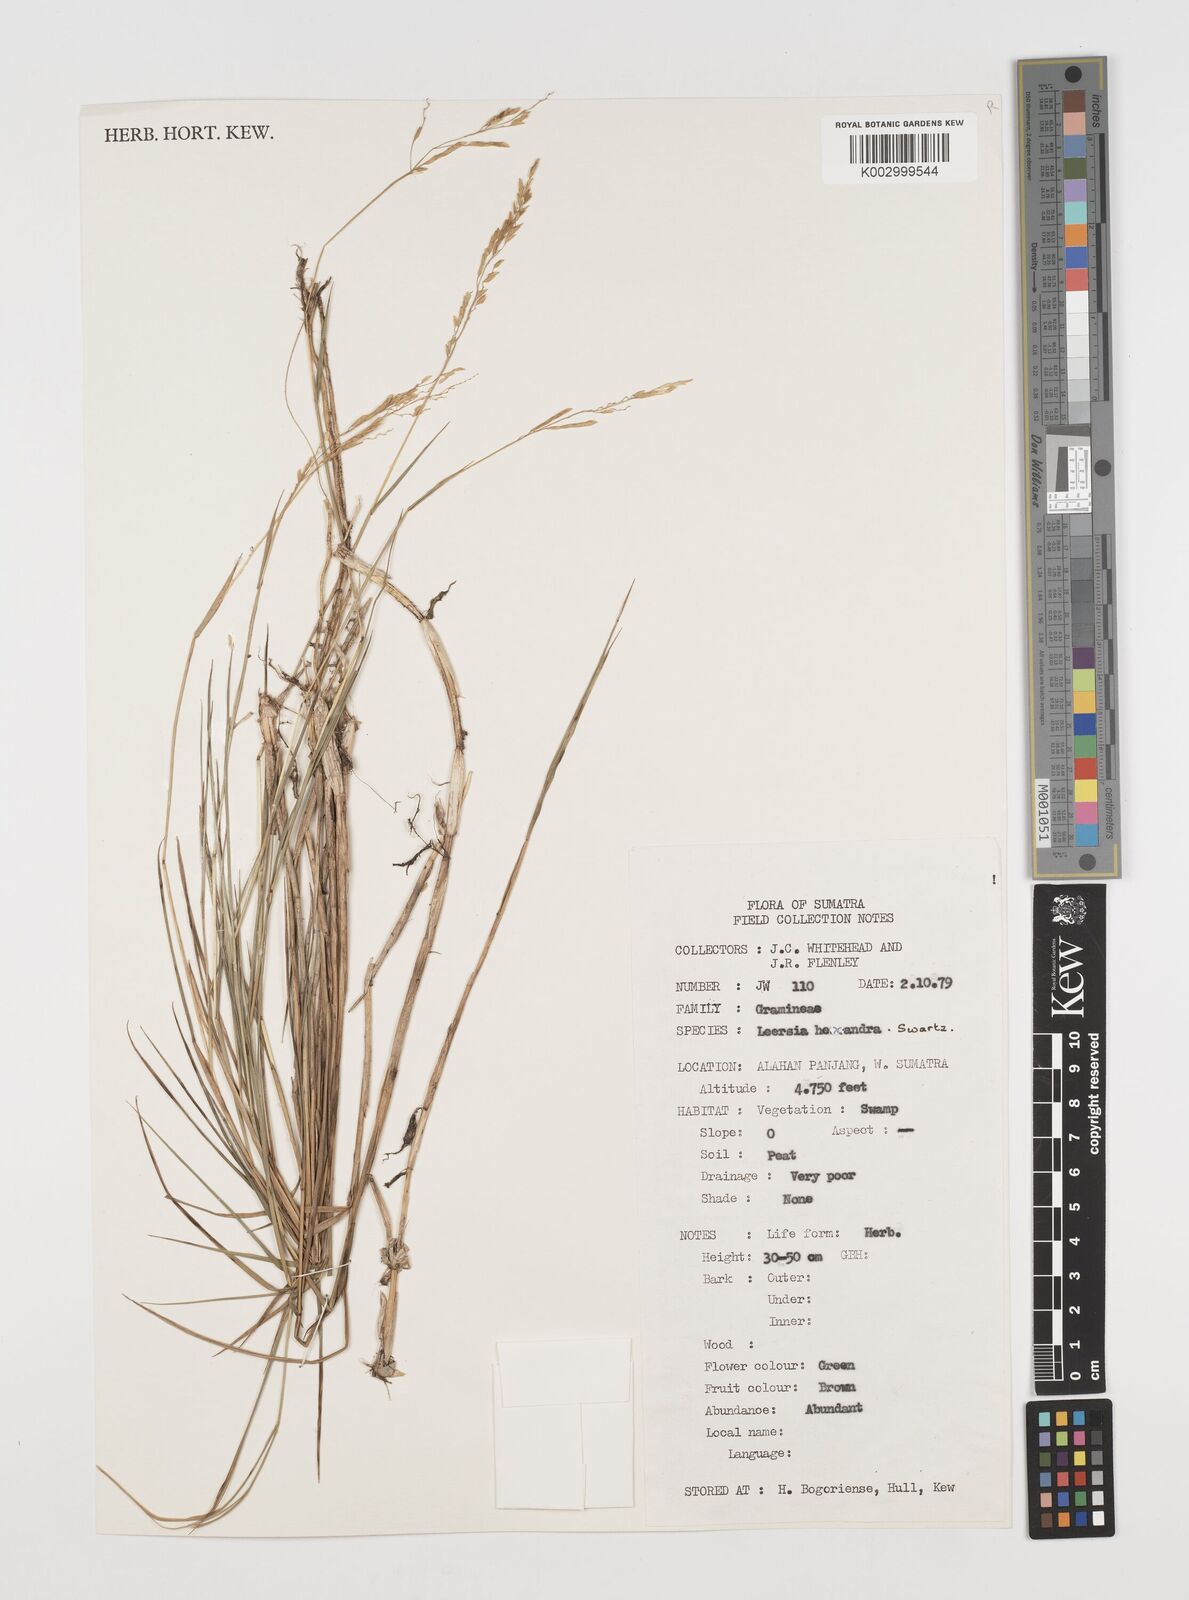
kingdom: Plantae
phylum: Tracheophyta
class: Liliopsida
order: Poales
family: Poaceae
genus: Leersia
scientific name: Leersia hexandra
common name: Southern cut grass
